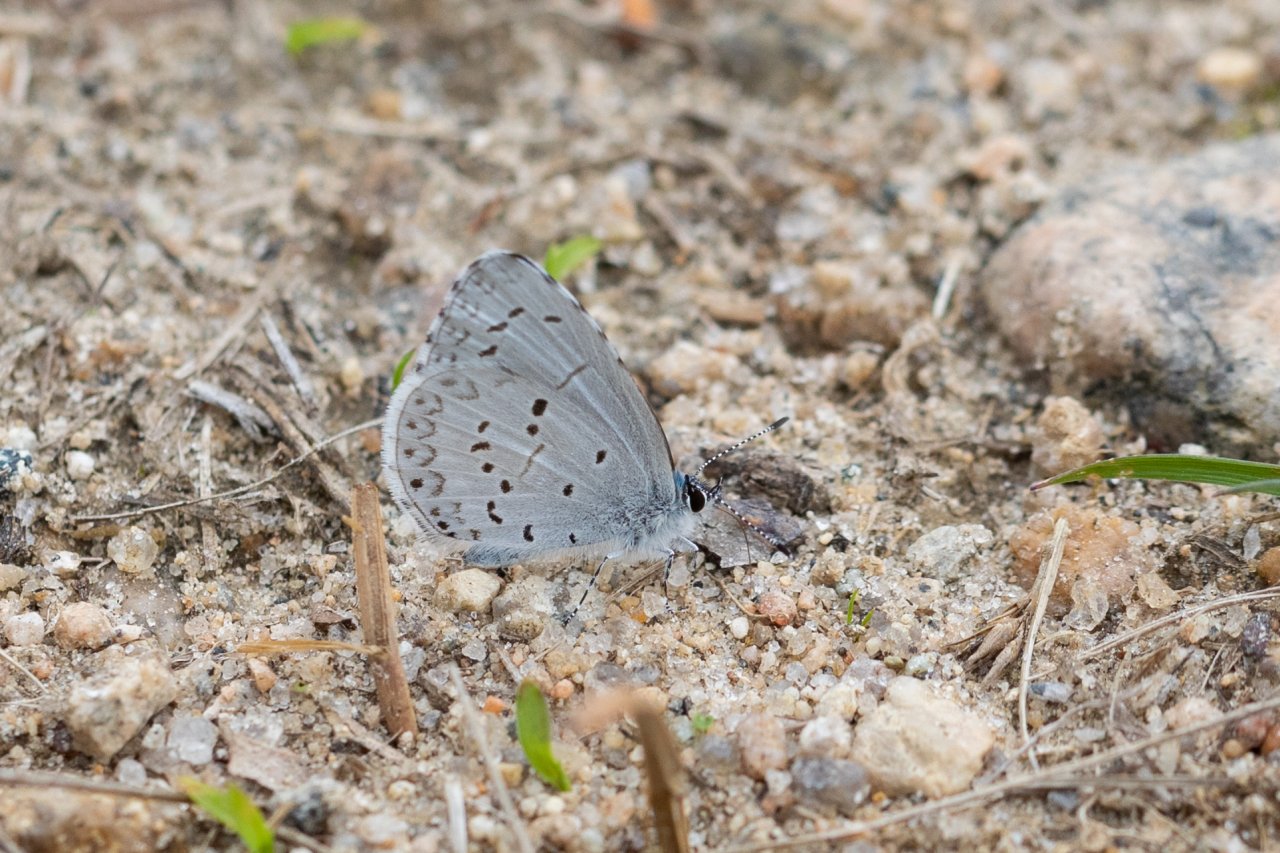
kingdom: Animalia
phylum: Arthropoda
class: Insecta
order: Lepidoptera
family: Lycaenidae
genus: Celastrina
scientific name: Celastrina
